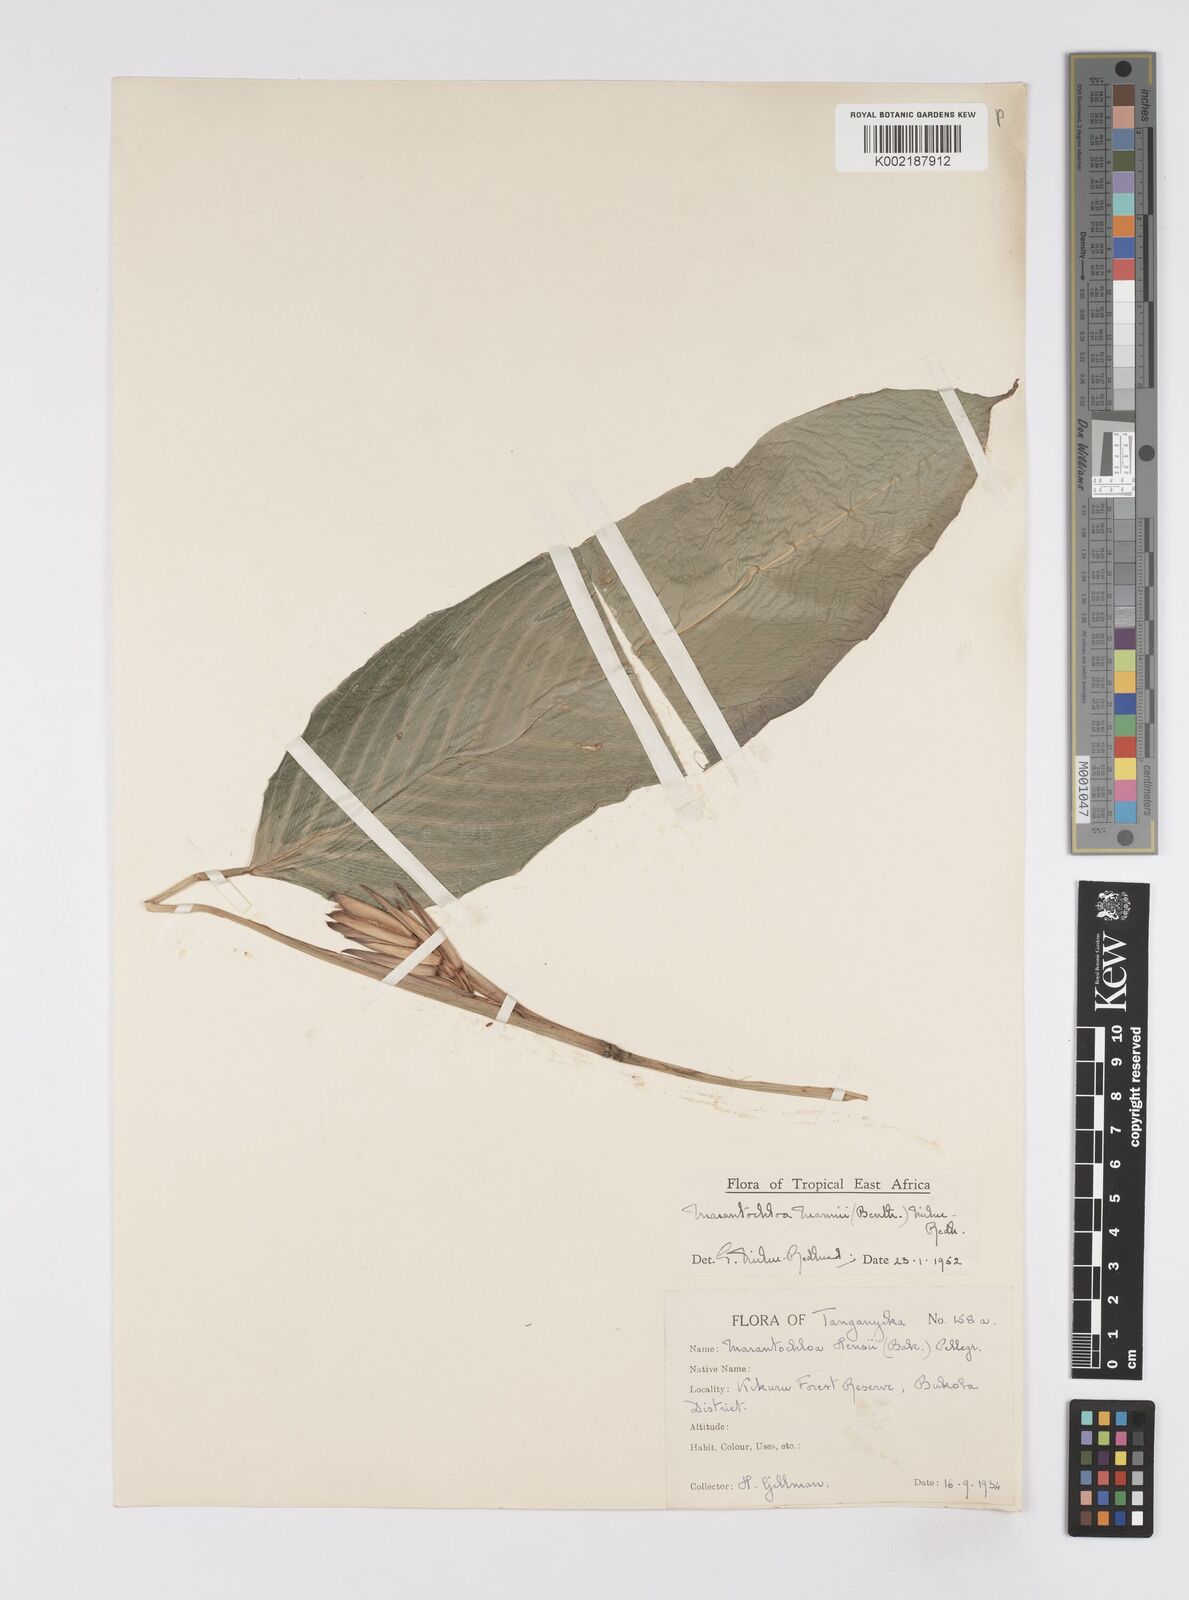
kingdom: Plantae
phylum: Tracheophyta
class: Liliopsida
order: Zingiberales
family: Marantaceae
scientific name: Marantaceae
